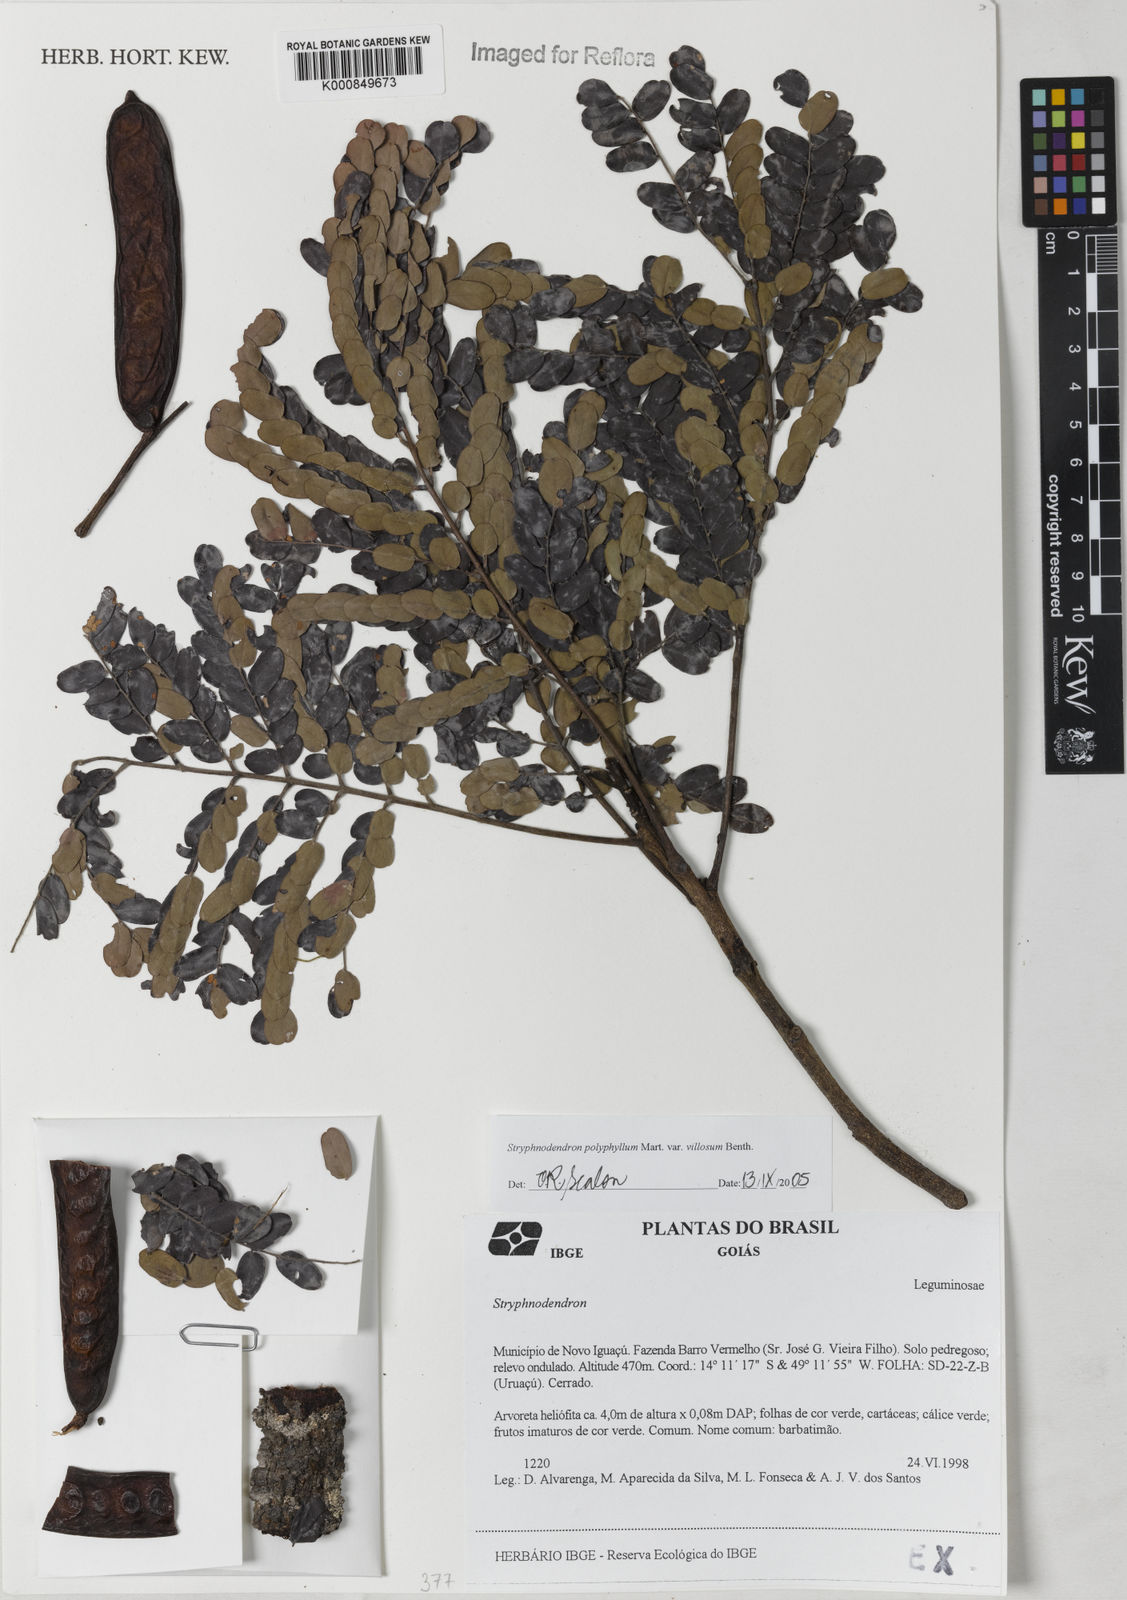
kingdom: Plantae
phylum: Tracheophyta
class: Magnoliopsida
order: Fabales
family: Fabaceae
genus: Stryphnodendron
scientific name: Stryphnodendron polyphyllum
